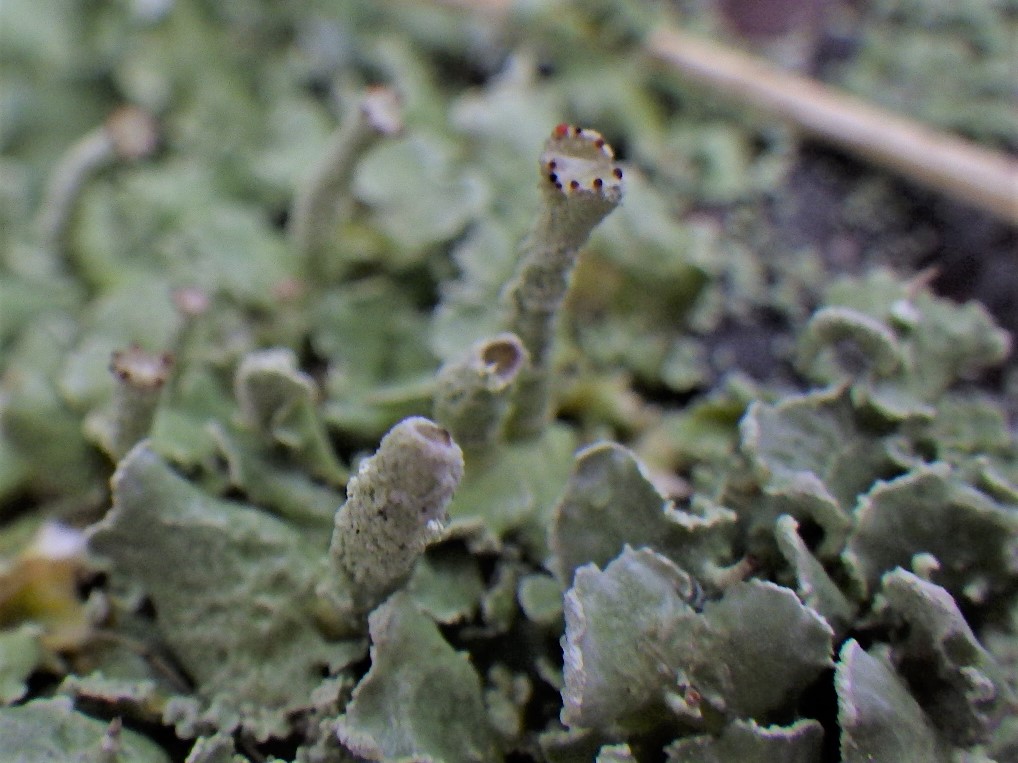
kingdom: Fungi
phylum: Ascomycota
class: Lecanoromycetes
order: Lecanorales
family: Cladoniaceae
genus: Cladonia
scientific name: Cladonia digitata
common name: finger-bægerlav
